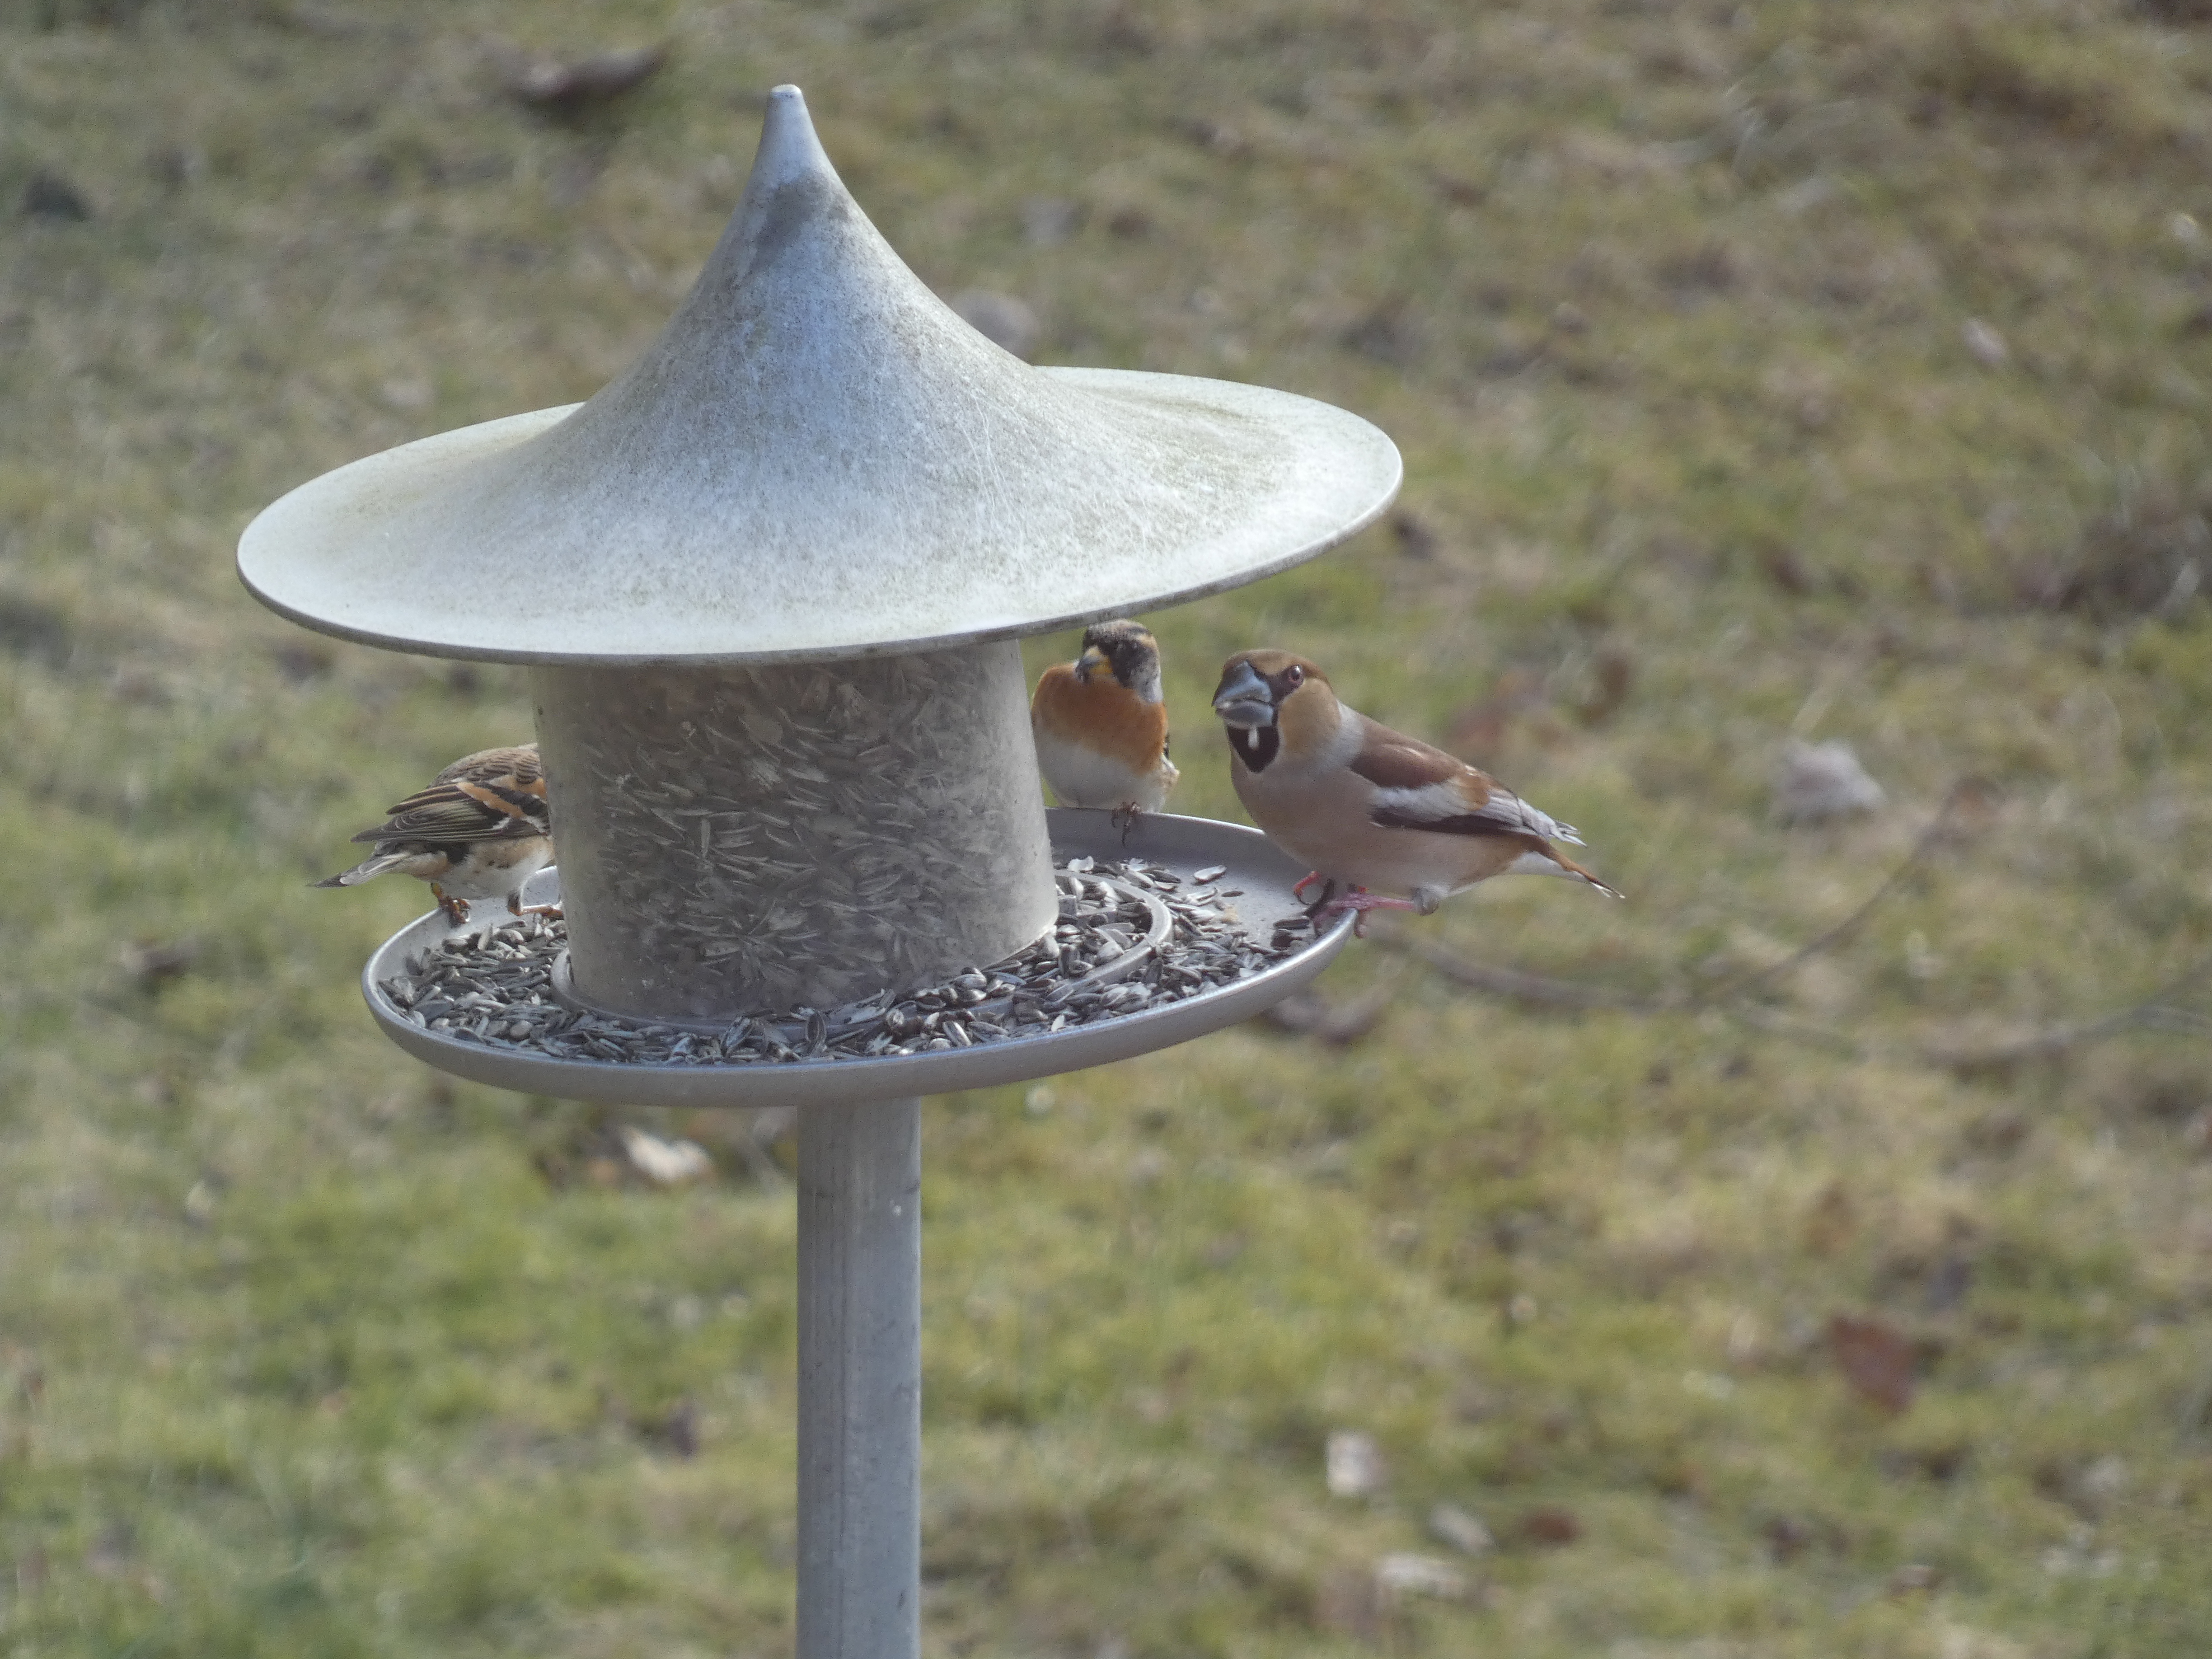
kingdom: Animalia
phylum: Chordata
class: Aves
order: Passeriformes
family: Fringillidae
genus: Coccothraustes
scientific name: Coccothraustes coccothraustes
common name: Kernebider
